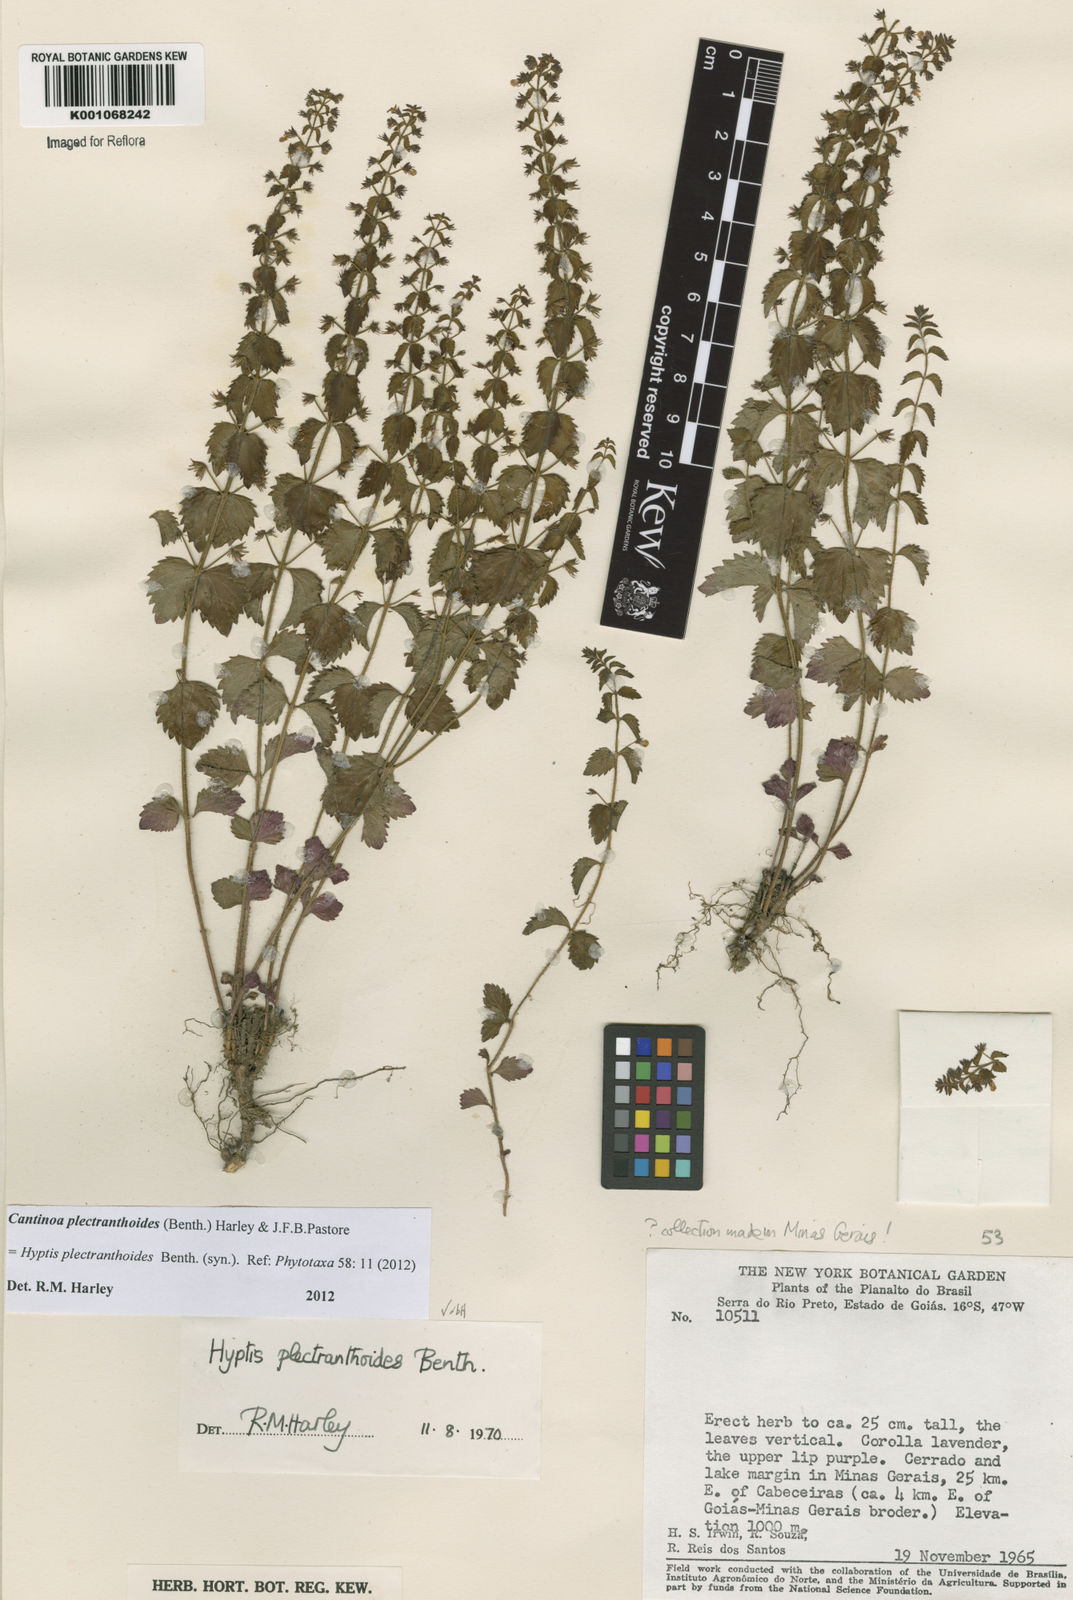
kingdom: Plantae
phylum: Tracheophyta
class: Magnoliopsida
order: Lamiales
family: Lamiaceae
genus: Cantinoa
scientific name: Cantinoa plectranthoides
